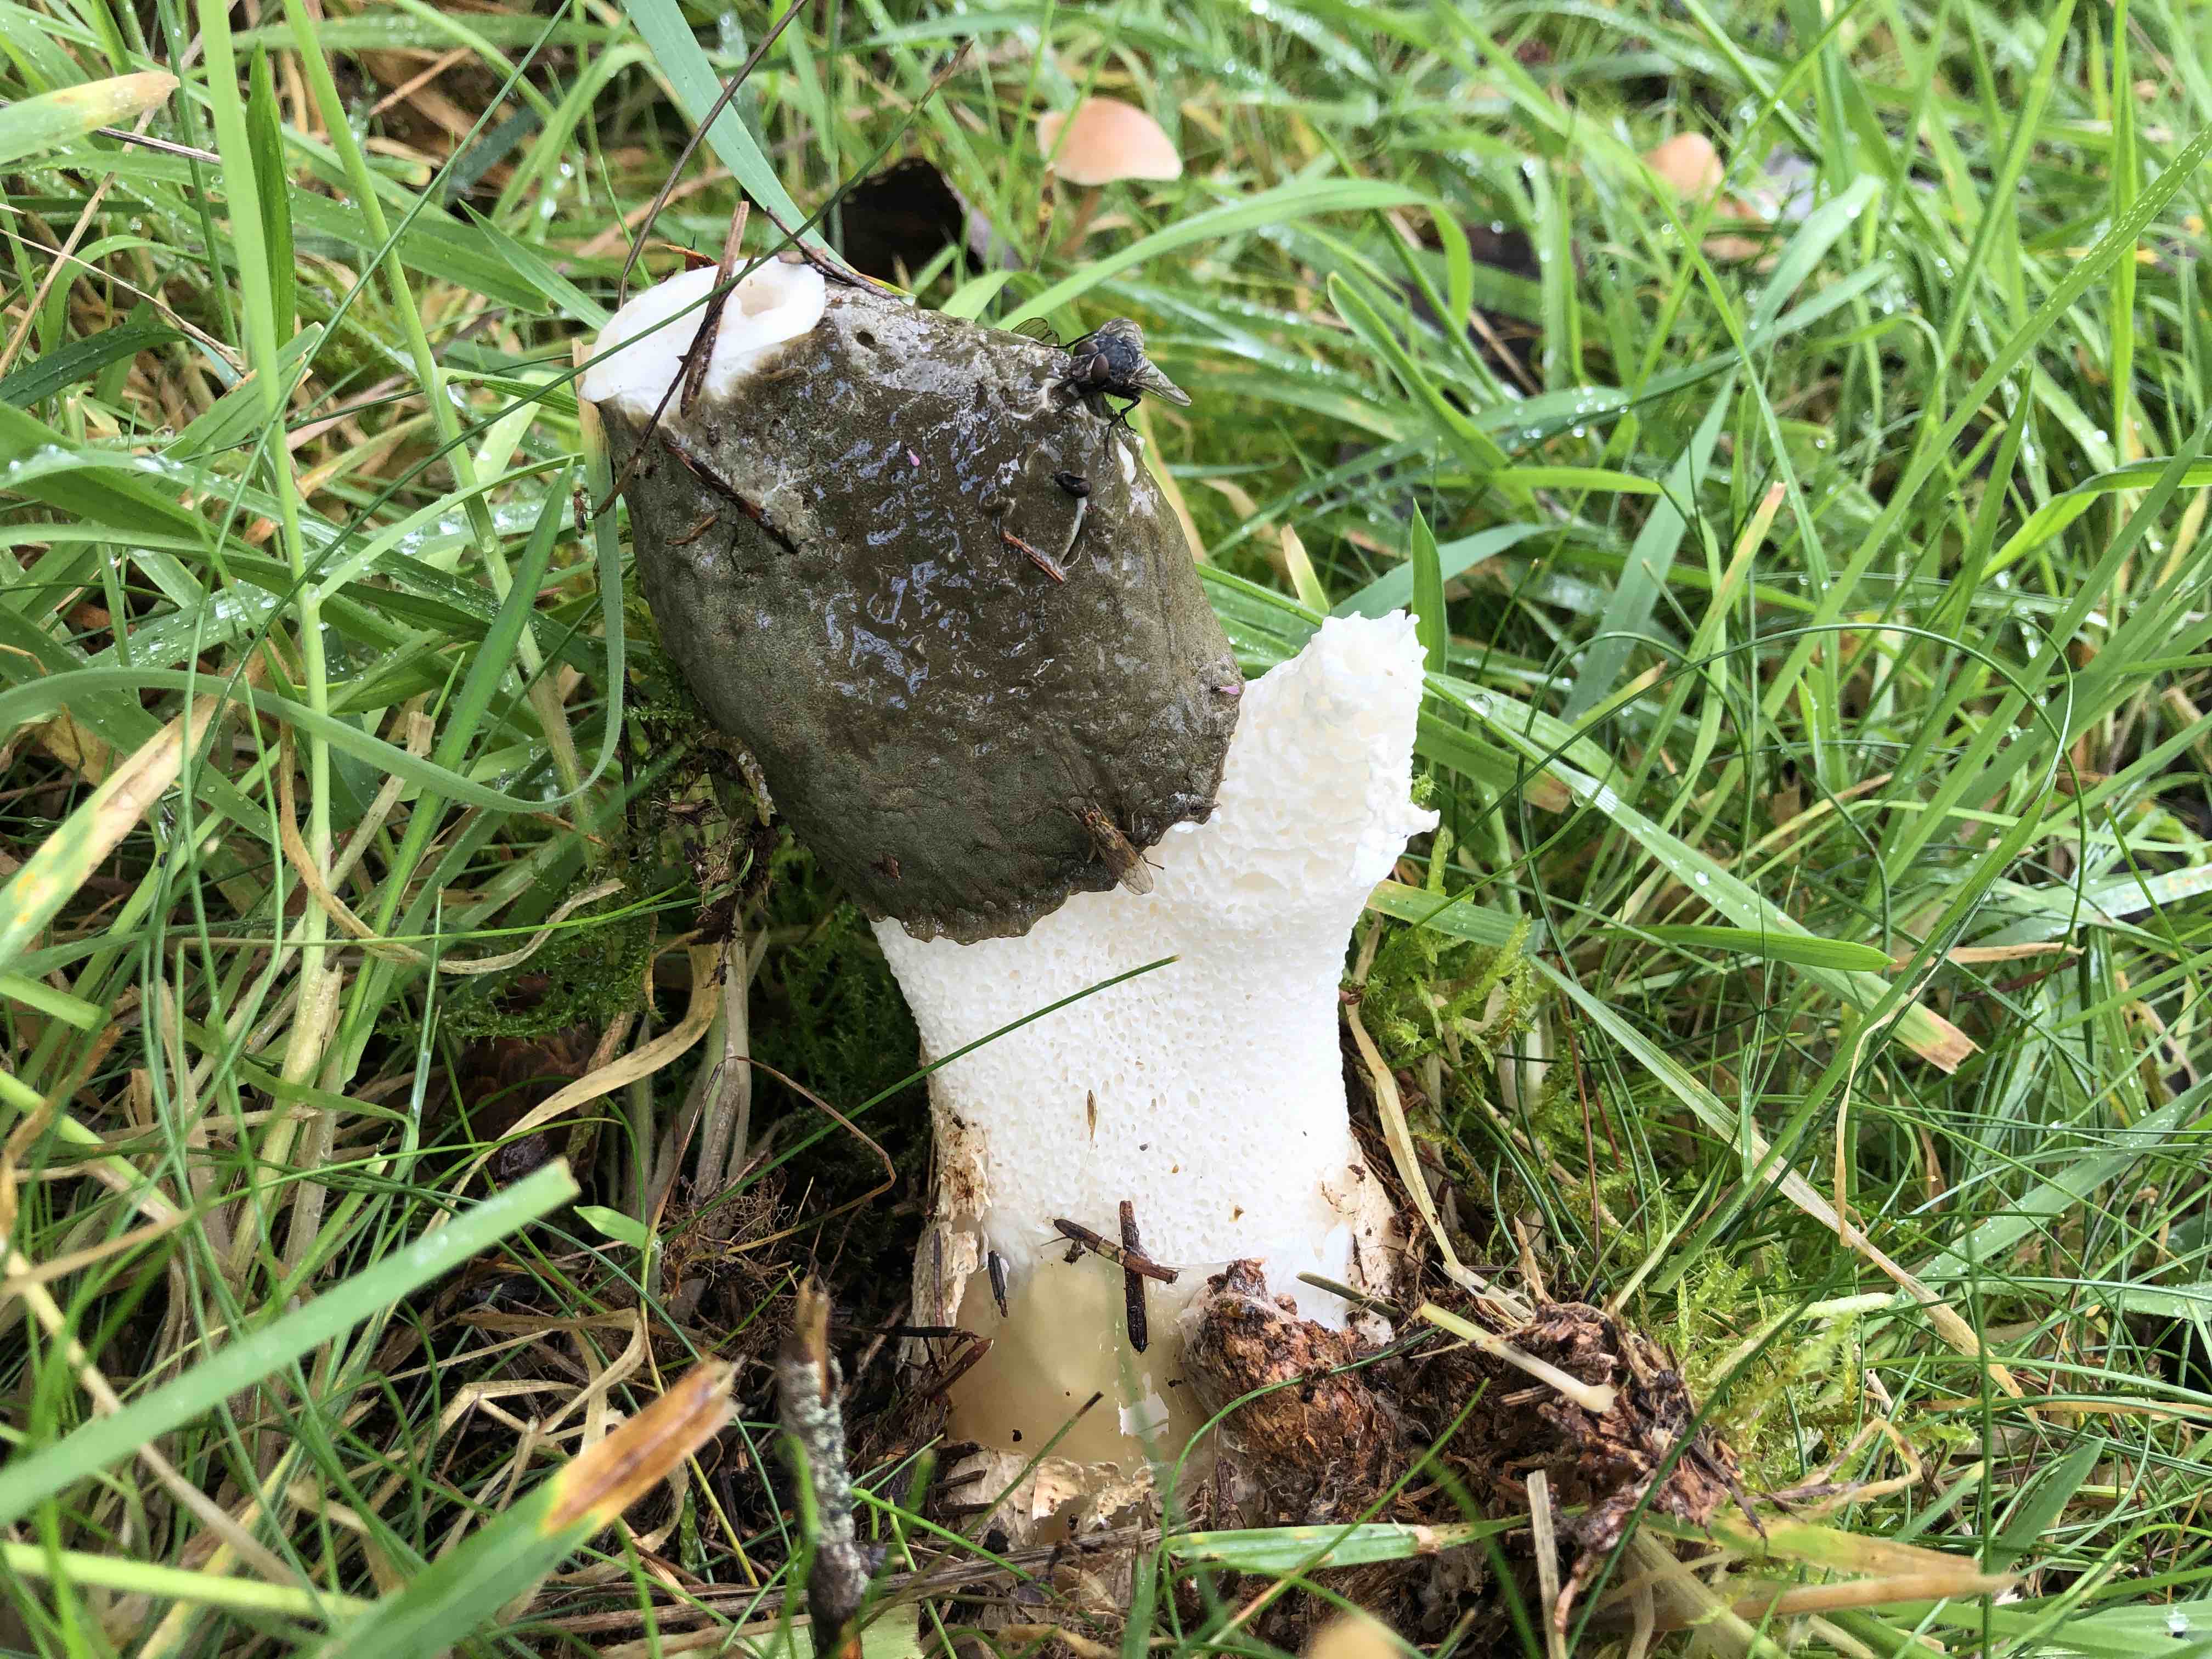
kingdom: Fungi
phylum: Basidiomycota
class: Agaricomycetes
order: Phallales
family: Phallaceae
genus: Phallus
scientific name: Phallus impudicus
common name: almindelig stinksvamp
